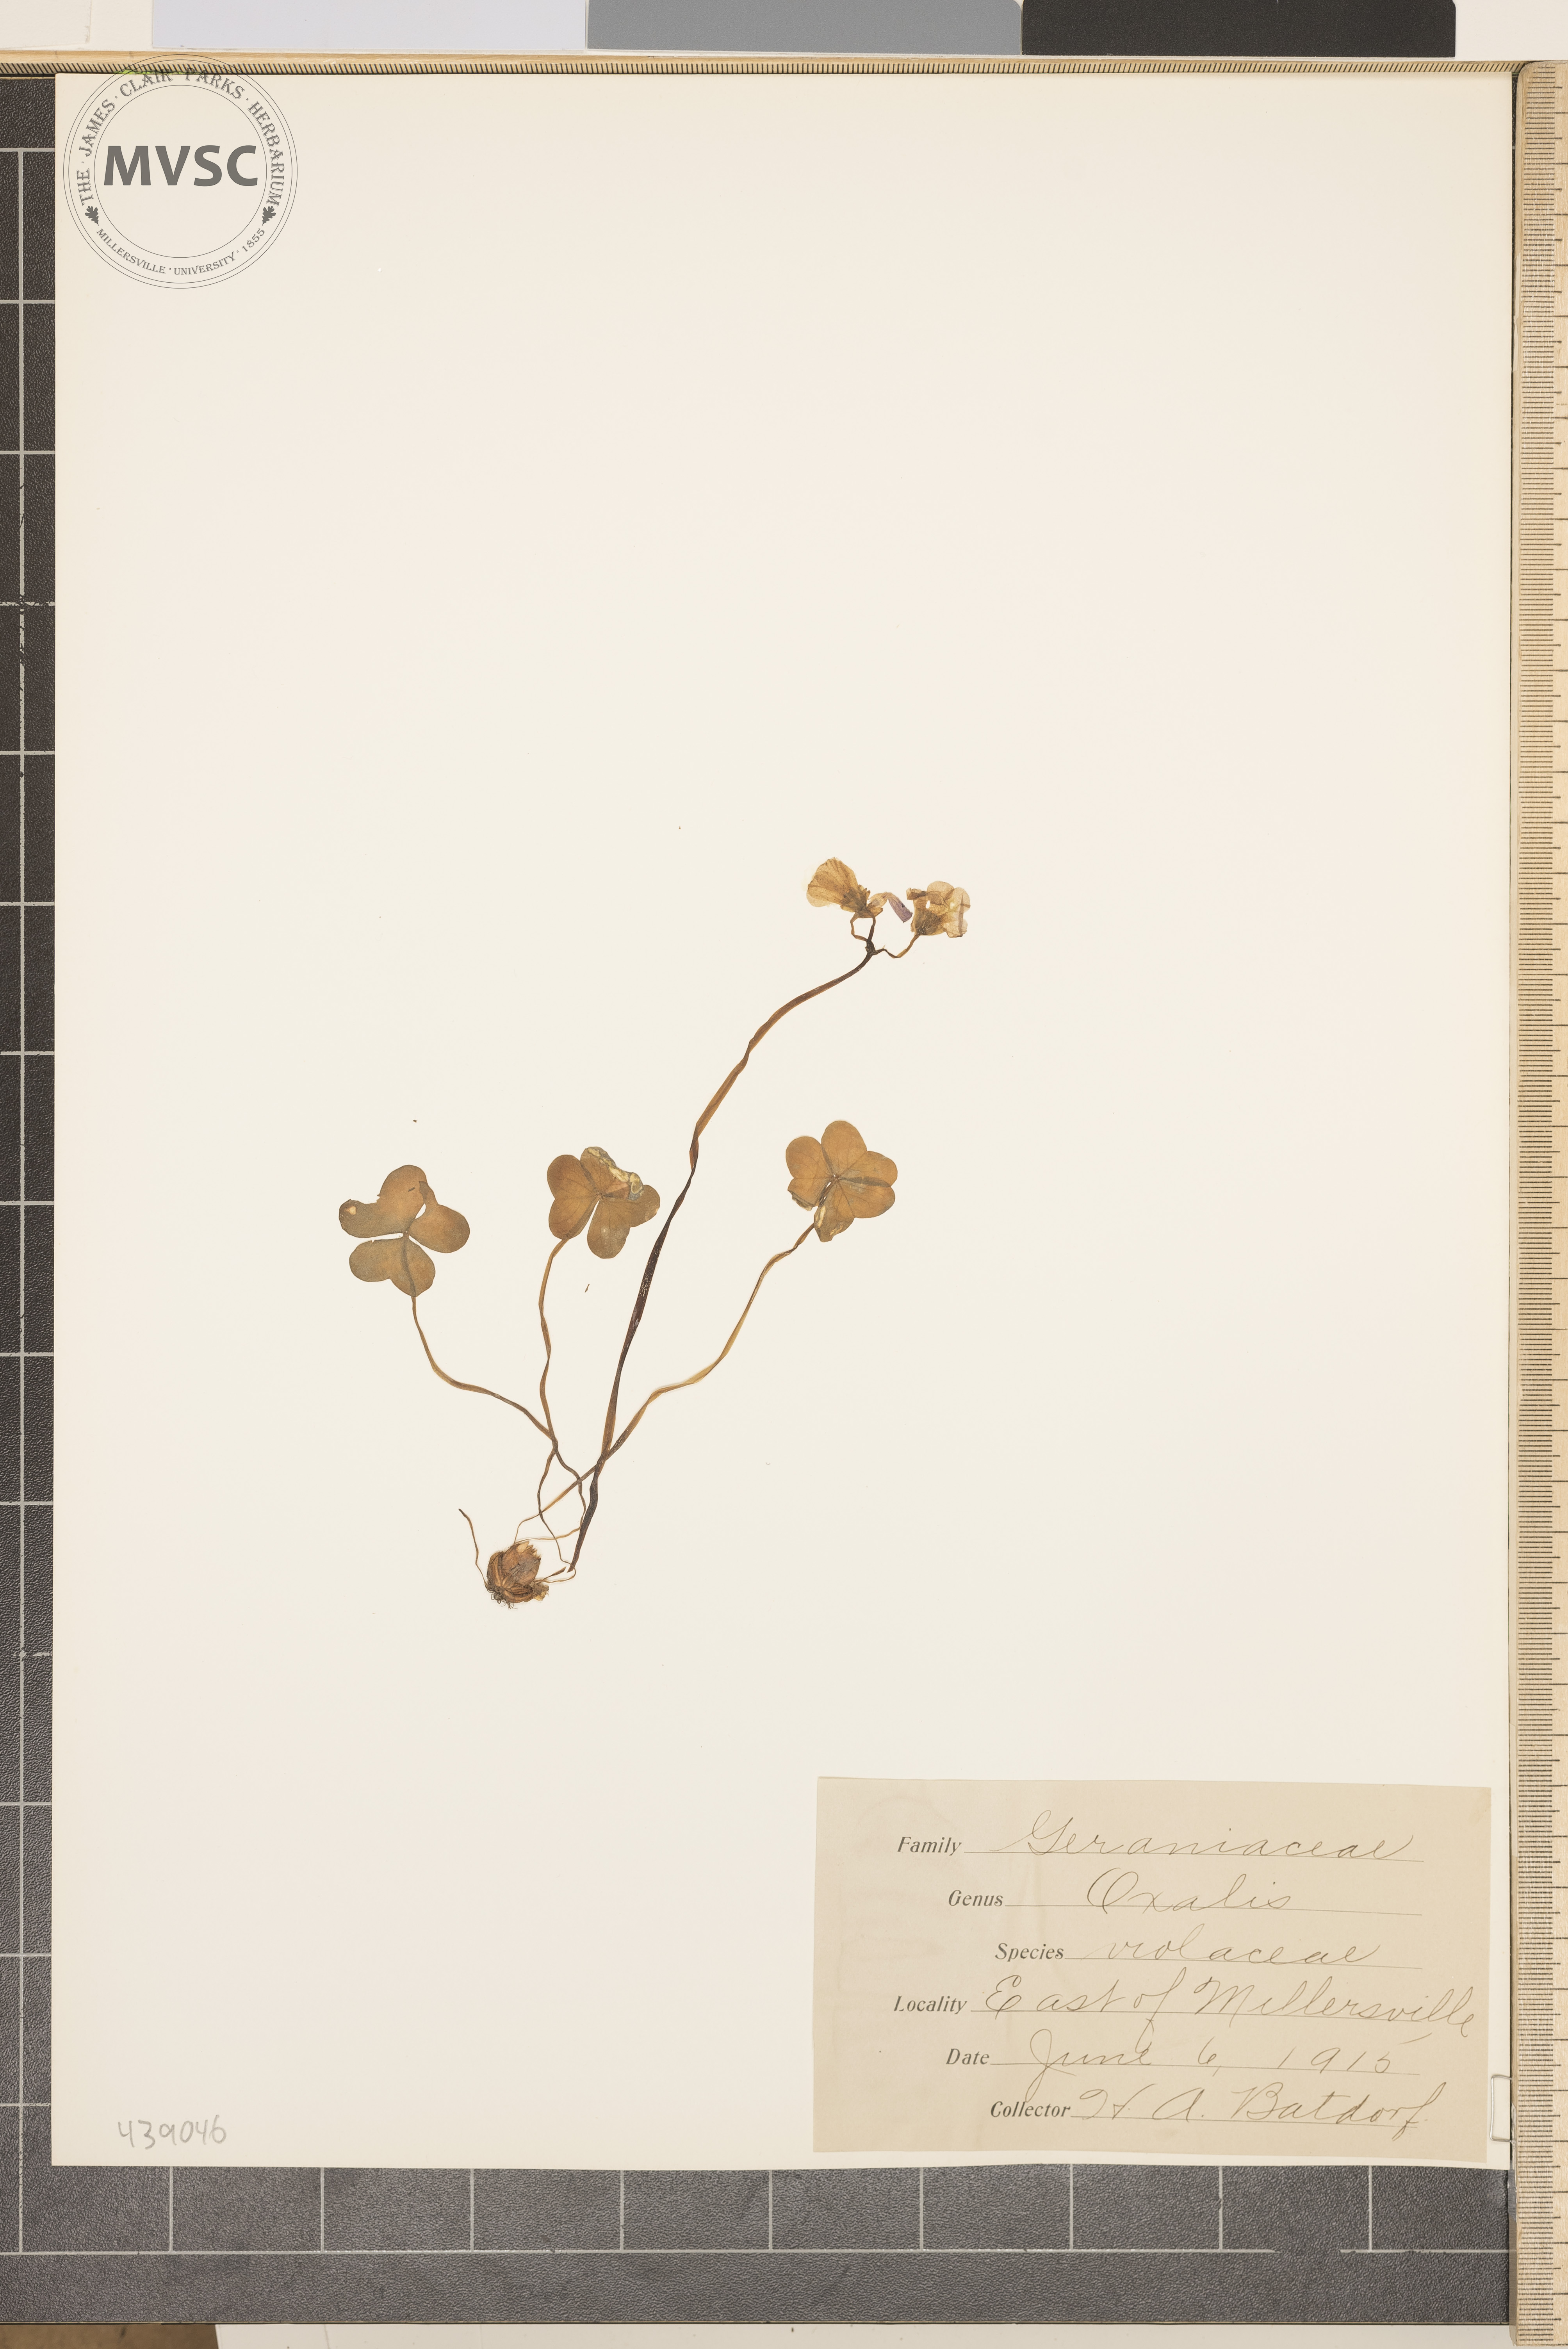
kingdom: Plantae
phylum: Tracheophyta
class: Magnoliopsida
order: Oxalidales
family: Oxalidaceae
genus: Oxalis
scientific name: Oxalis violacea
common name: Violet wood-sorrel
